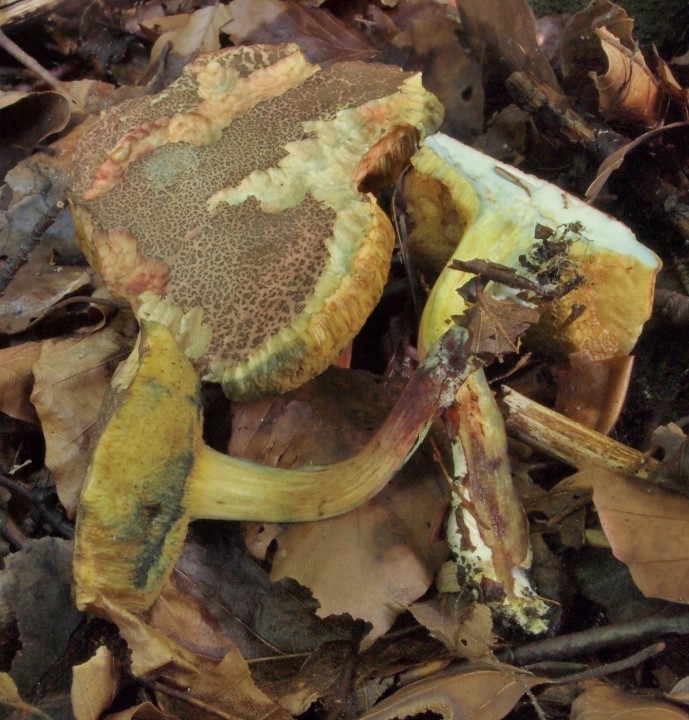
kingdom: Fungi
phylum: Basidiomycota
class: Agaricomycetes
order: Boletales
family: Boletaceae
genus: Xerocomellus
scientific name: Xerocomellus cisalpinus
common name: finsprukken rørhat
